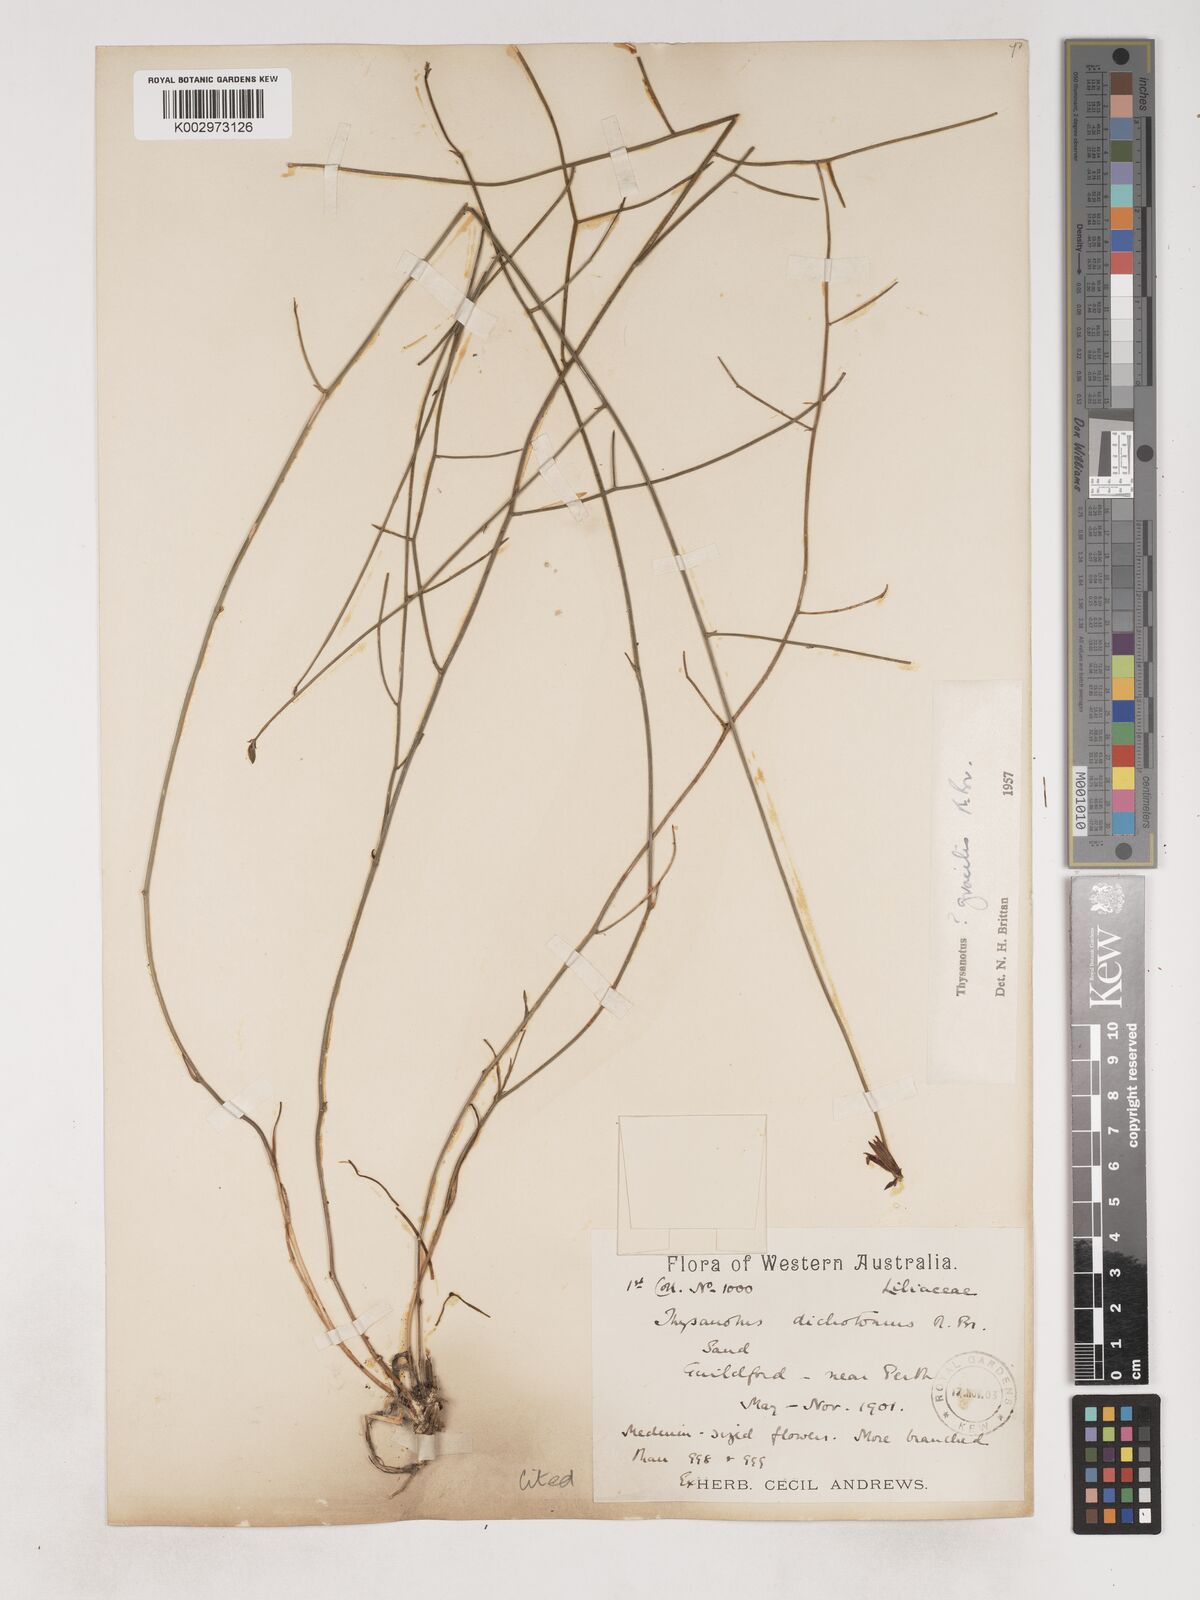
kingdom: Plantae
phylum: Tracheophyta
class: Liliopsida
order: Asparagales
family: Asparagaceae
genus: Thysanotus
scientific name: Thysanotus gracilis
